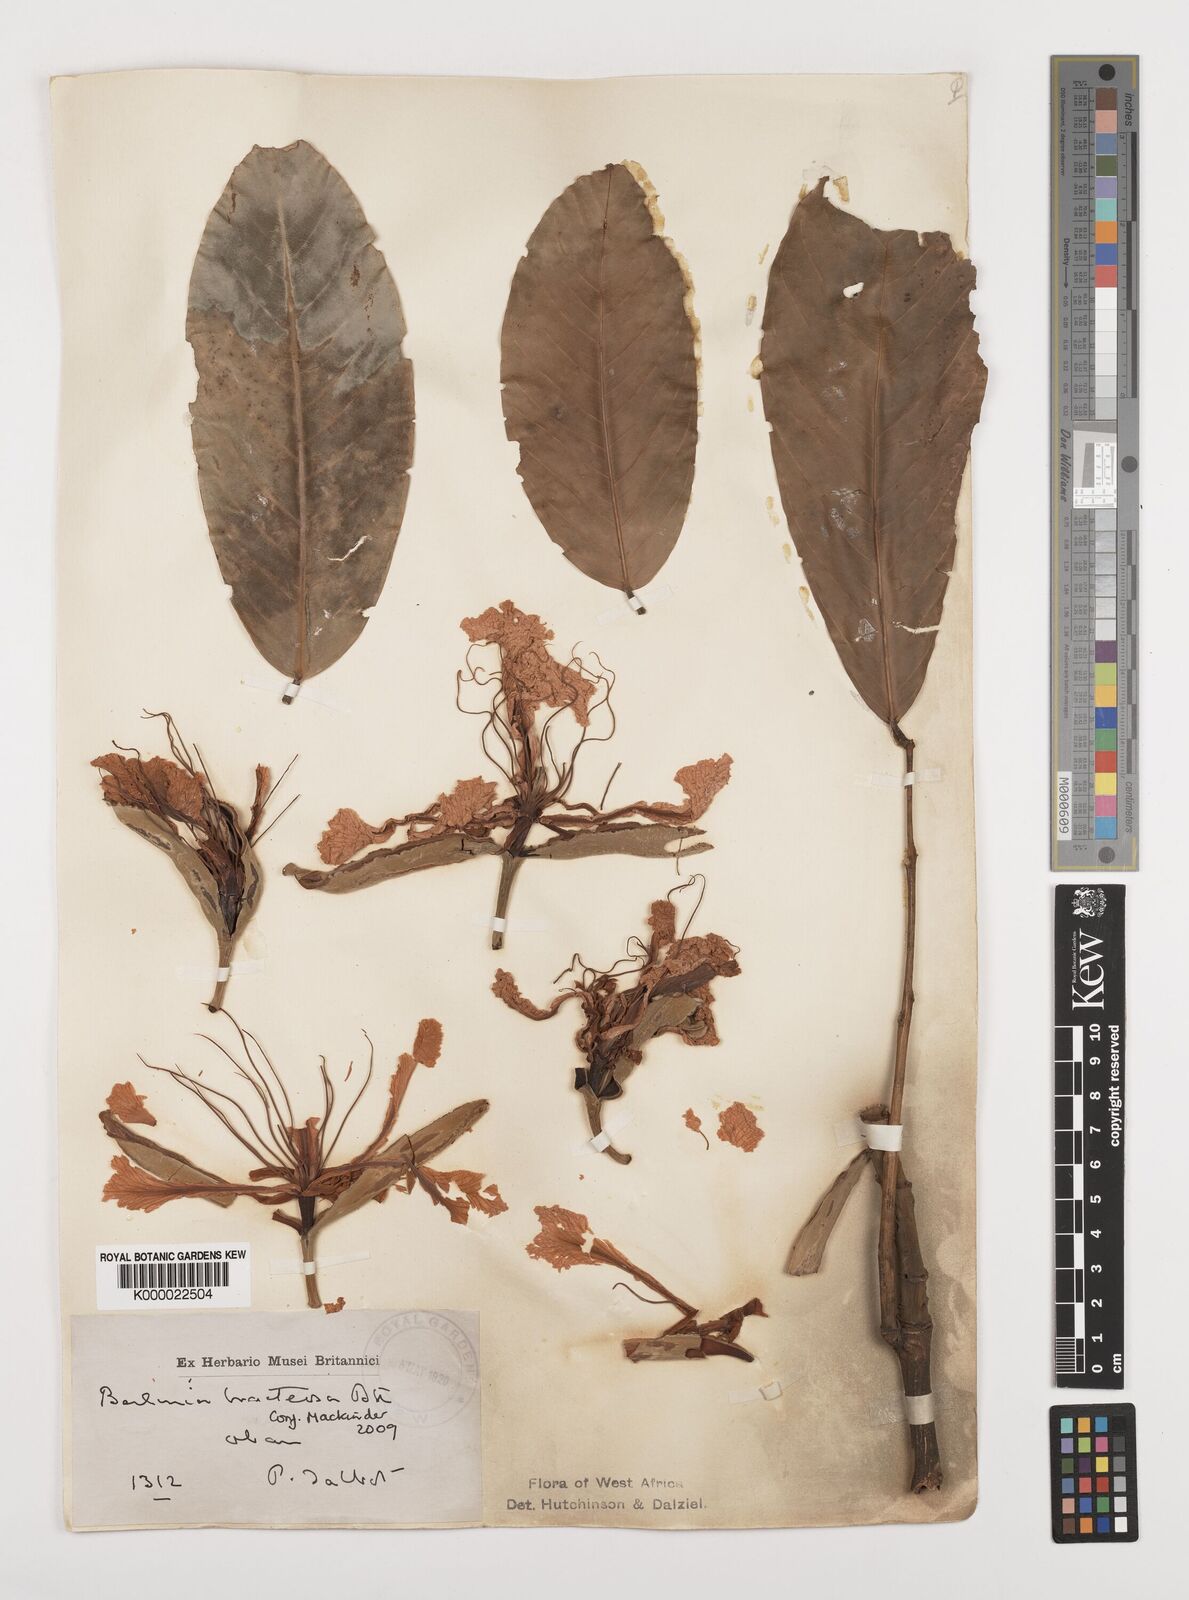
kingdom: Plantae
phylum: Tracheophyta
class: Magnoliopsida
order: Fabales
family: Fabaceae
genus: Berlinia
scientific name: Berlinia bracteosa
